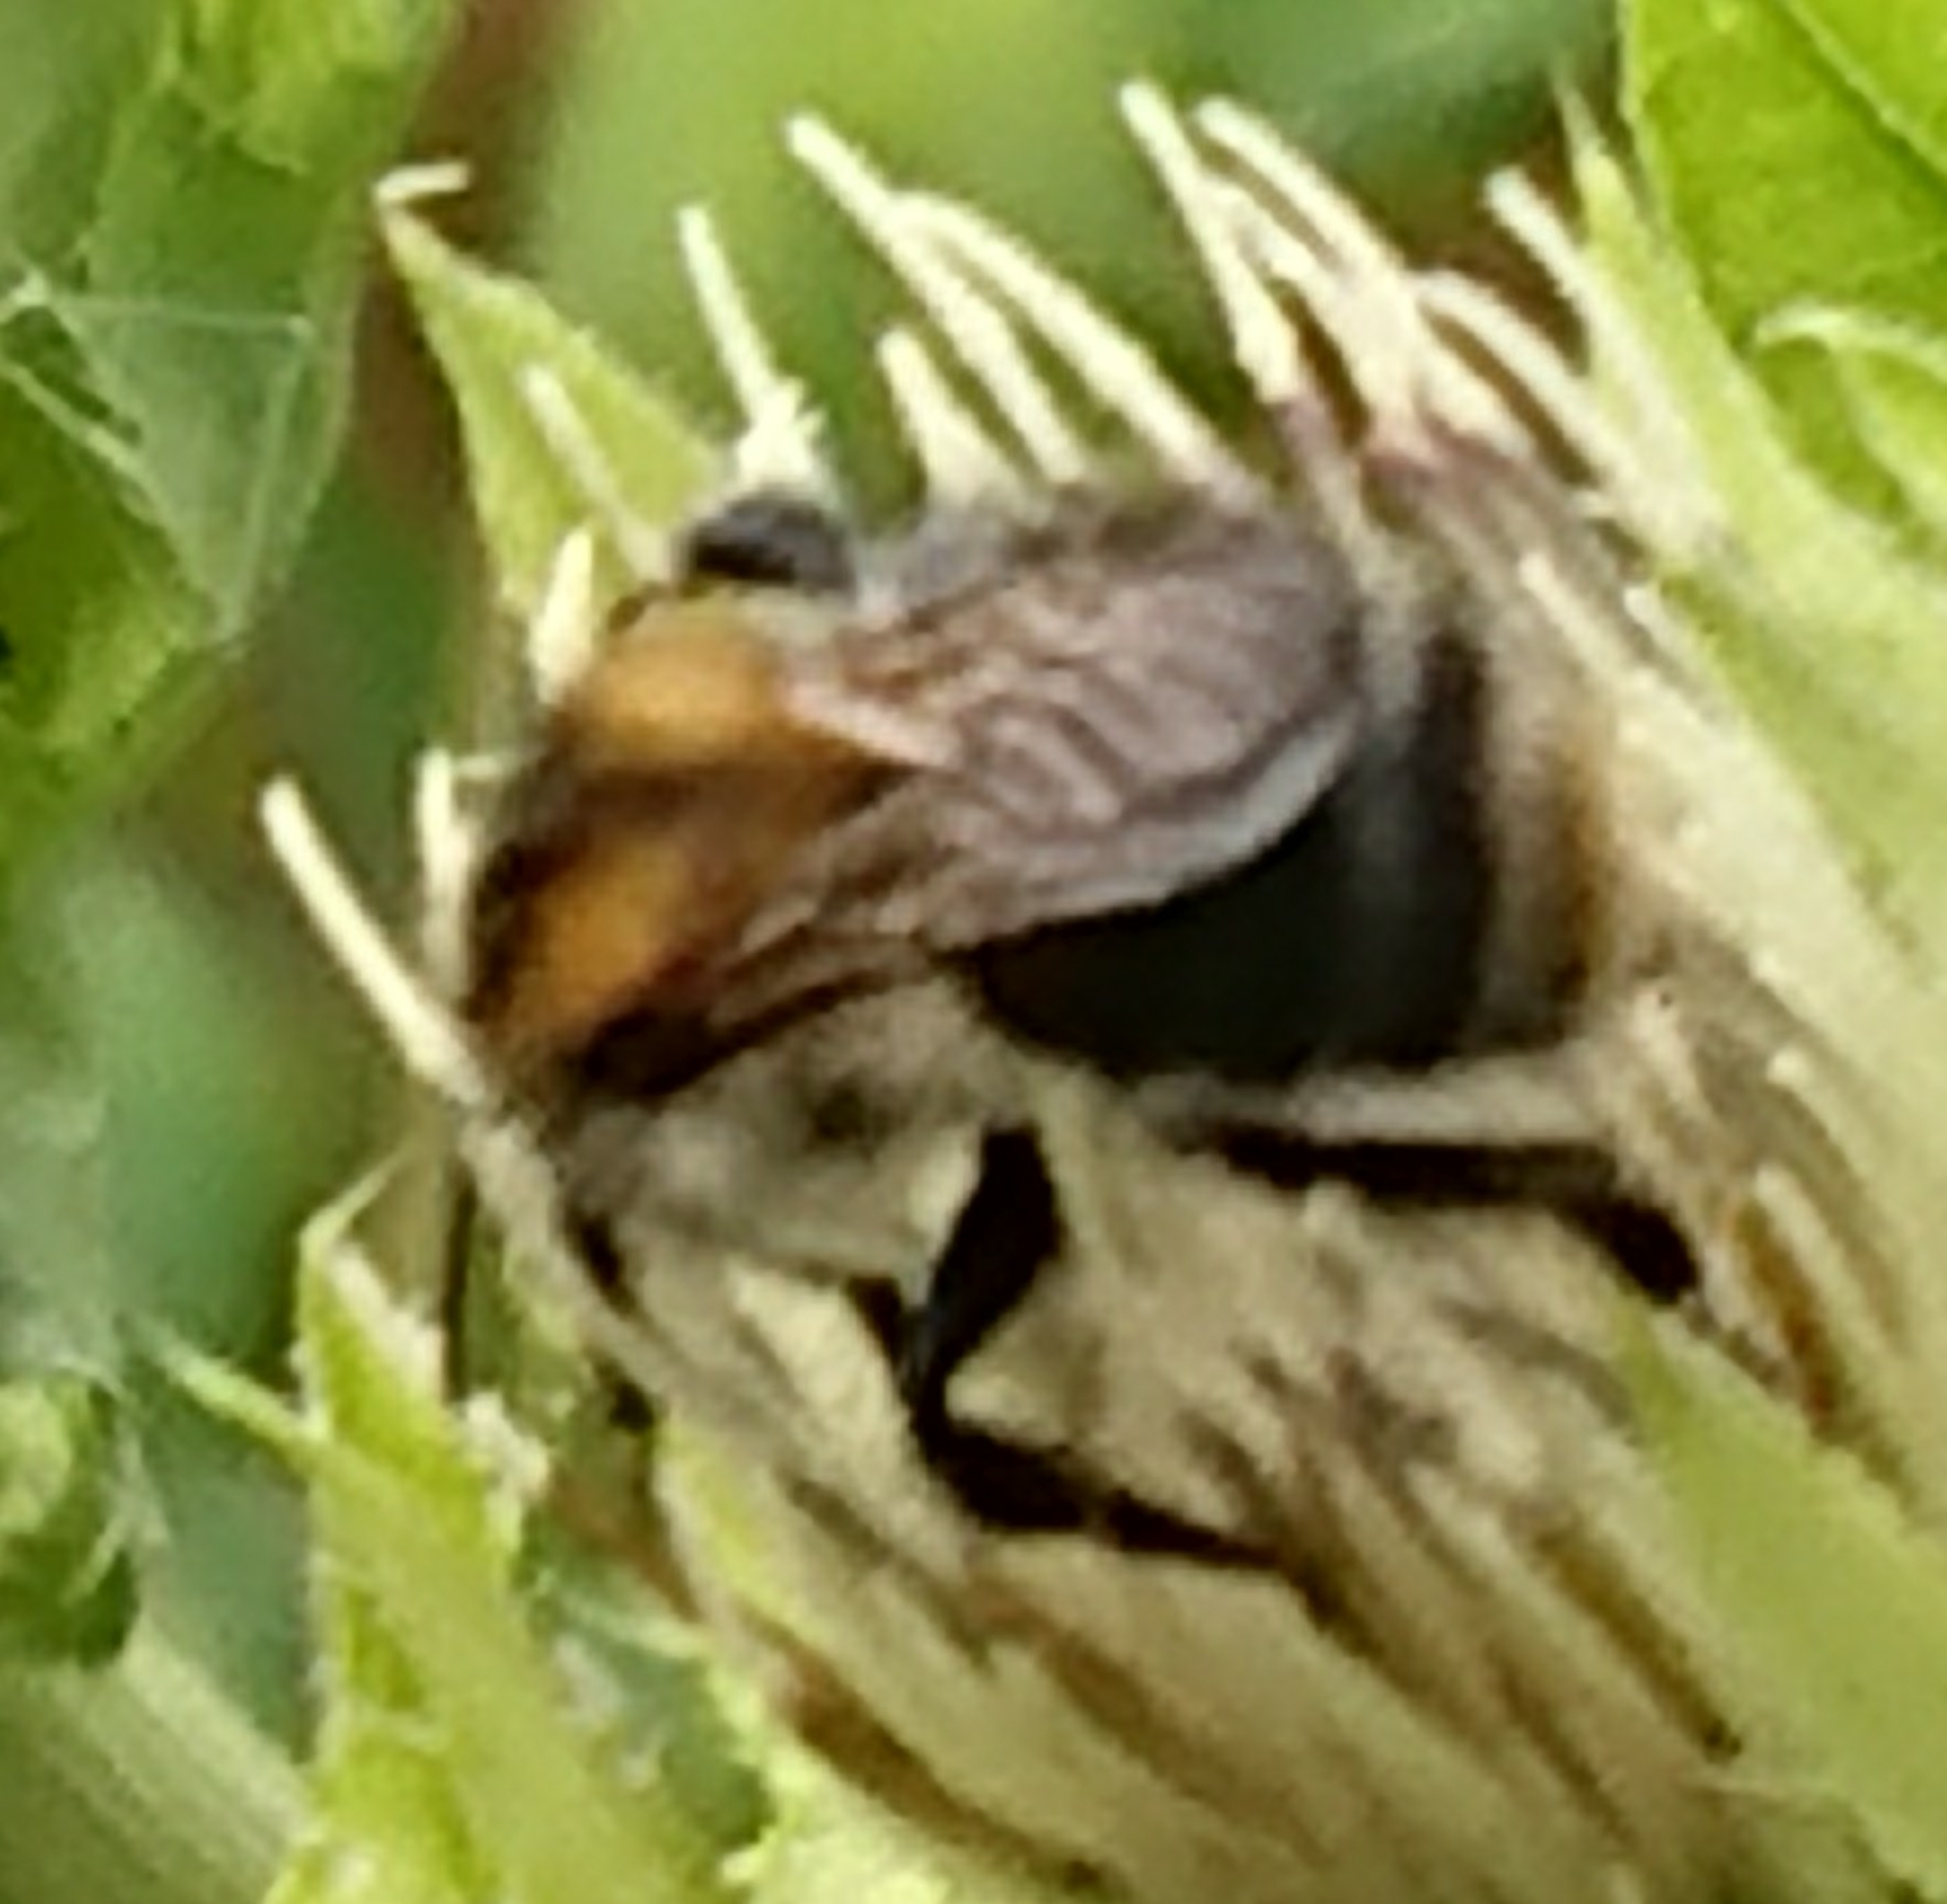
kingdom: Animalia
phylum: Arthropoda
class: Insecta
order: Hymenoptera
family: Apidae
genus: Bombus
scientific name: Bombus pascuorum
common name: Agerhumle
